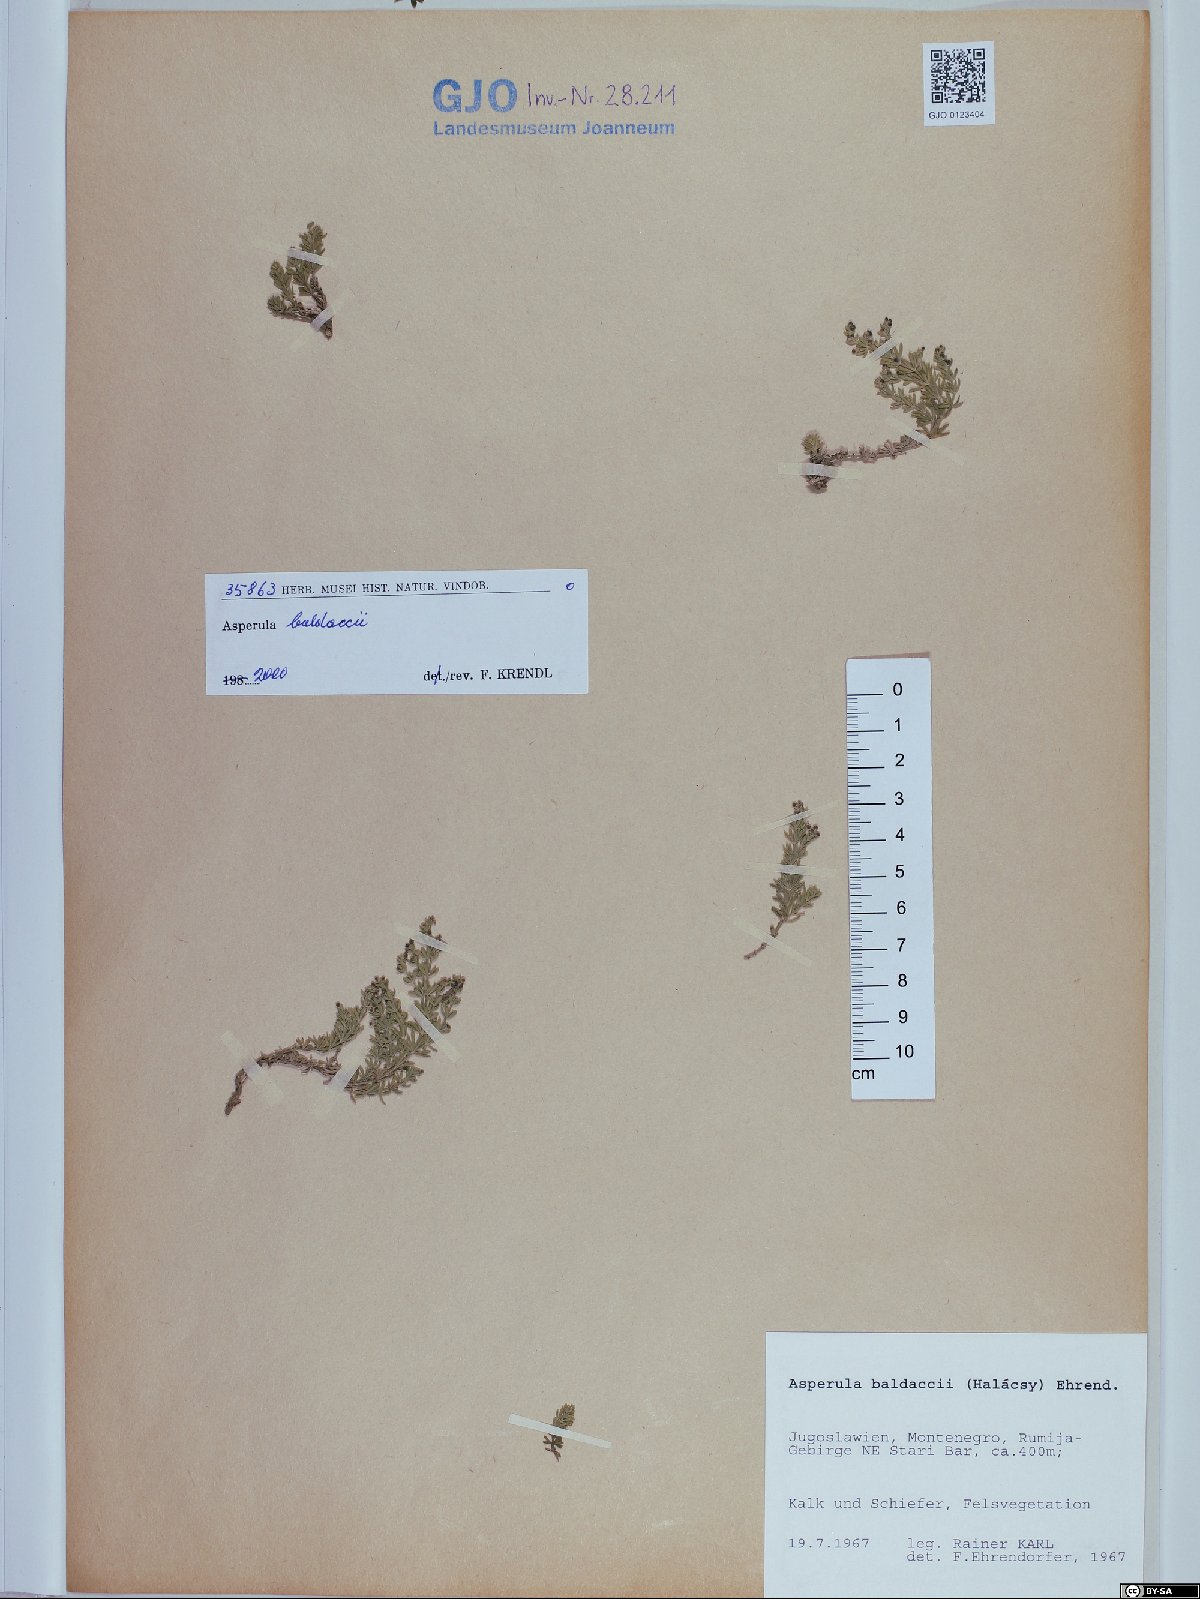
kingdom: Plantae
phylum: Tracheophyta
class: Magnoliopsida
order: Gentianales
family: Rubiaceae
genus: Thliphthisa
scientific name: Thliphthisa baldaccii
